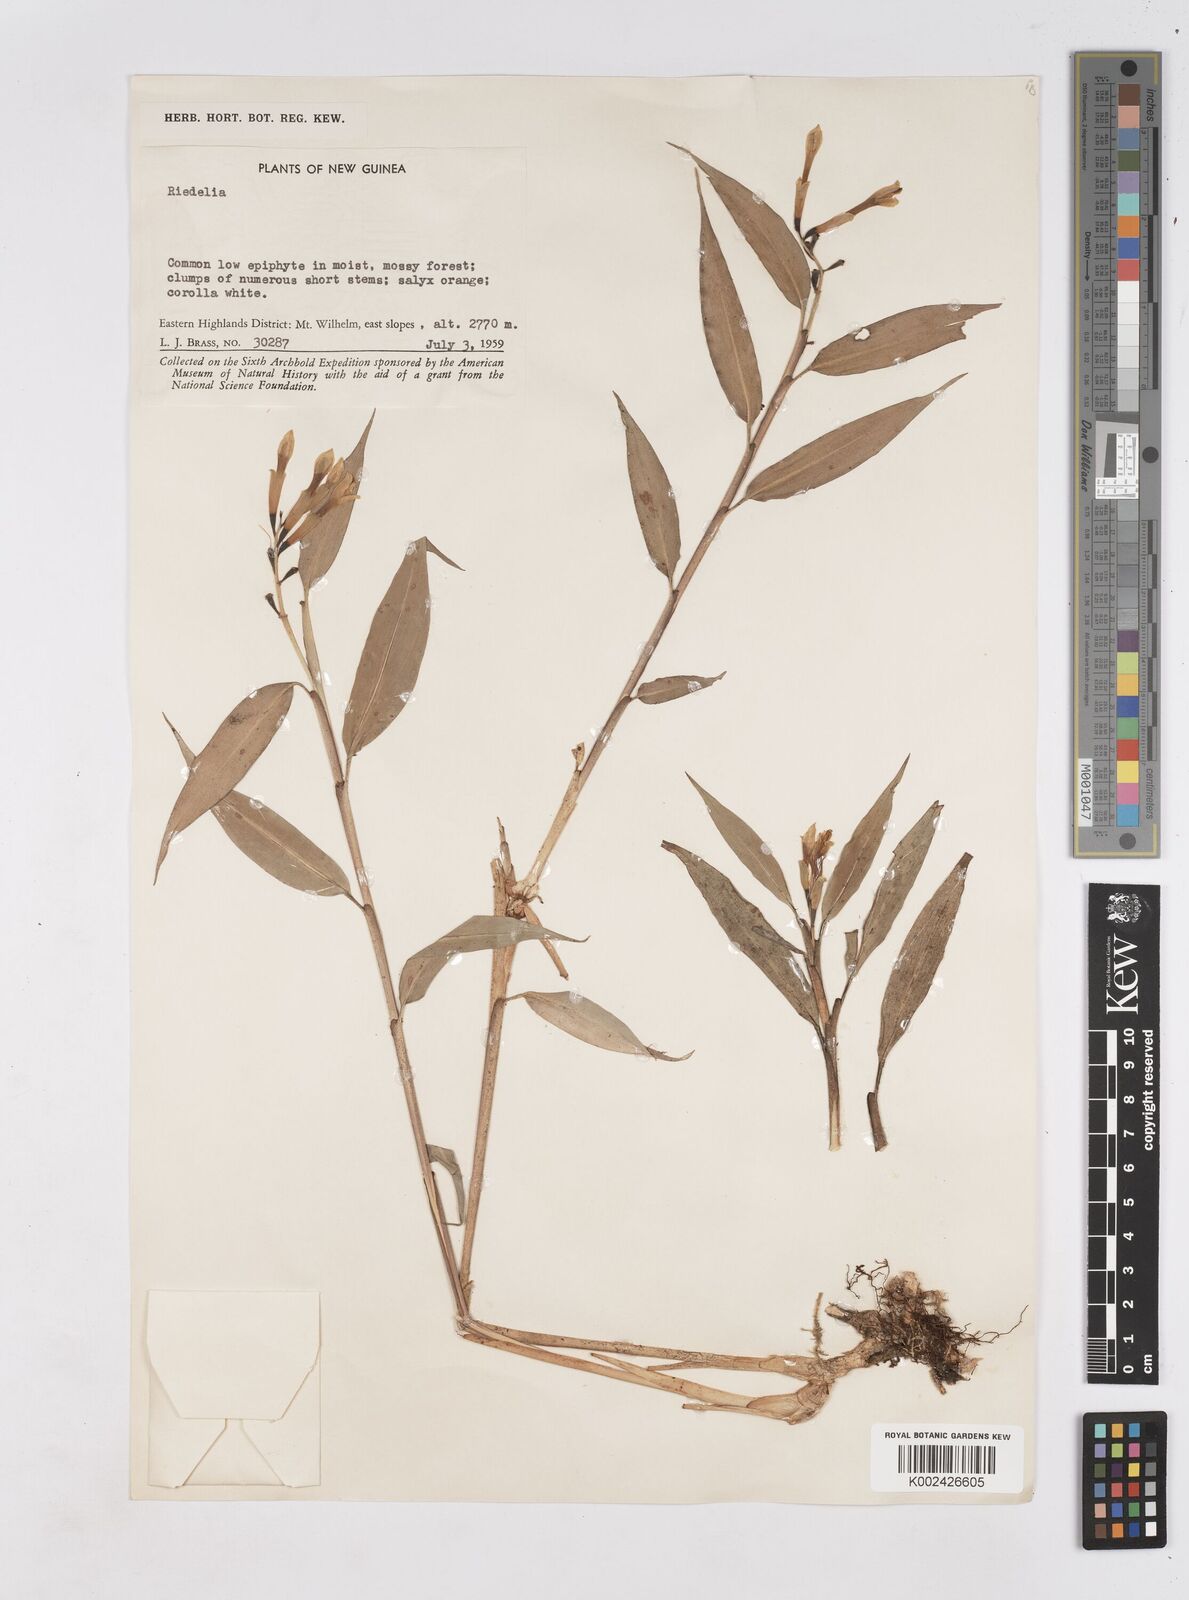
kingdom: Plantae
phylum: Tracheophyta
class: Liliopsida
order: Zingiberales
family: Zingiberaceae
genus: Riedelia
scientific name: Riedelia
